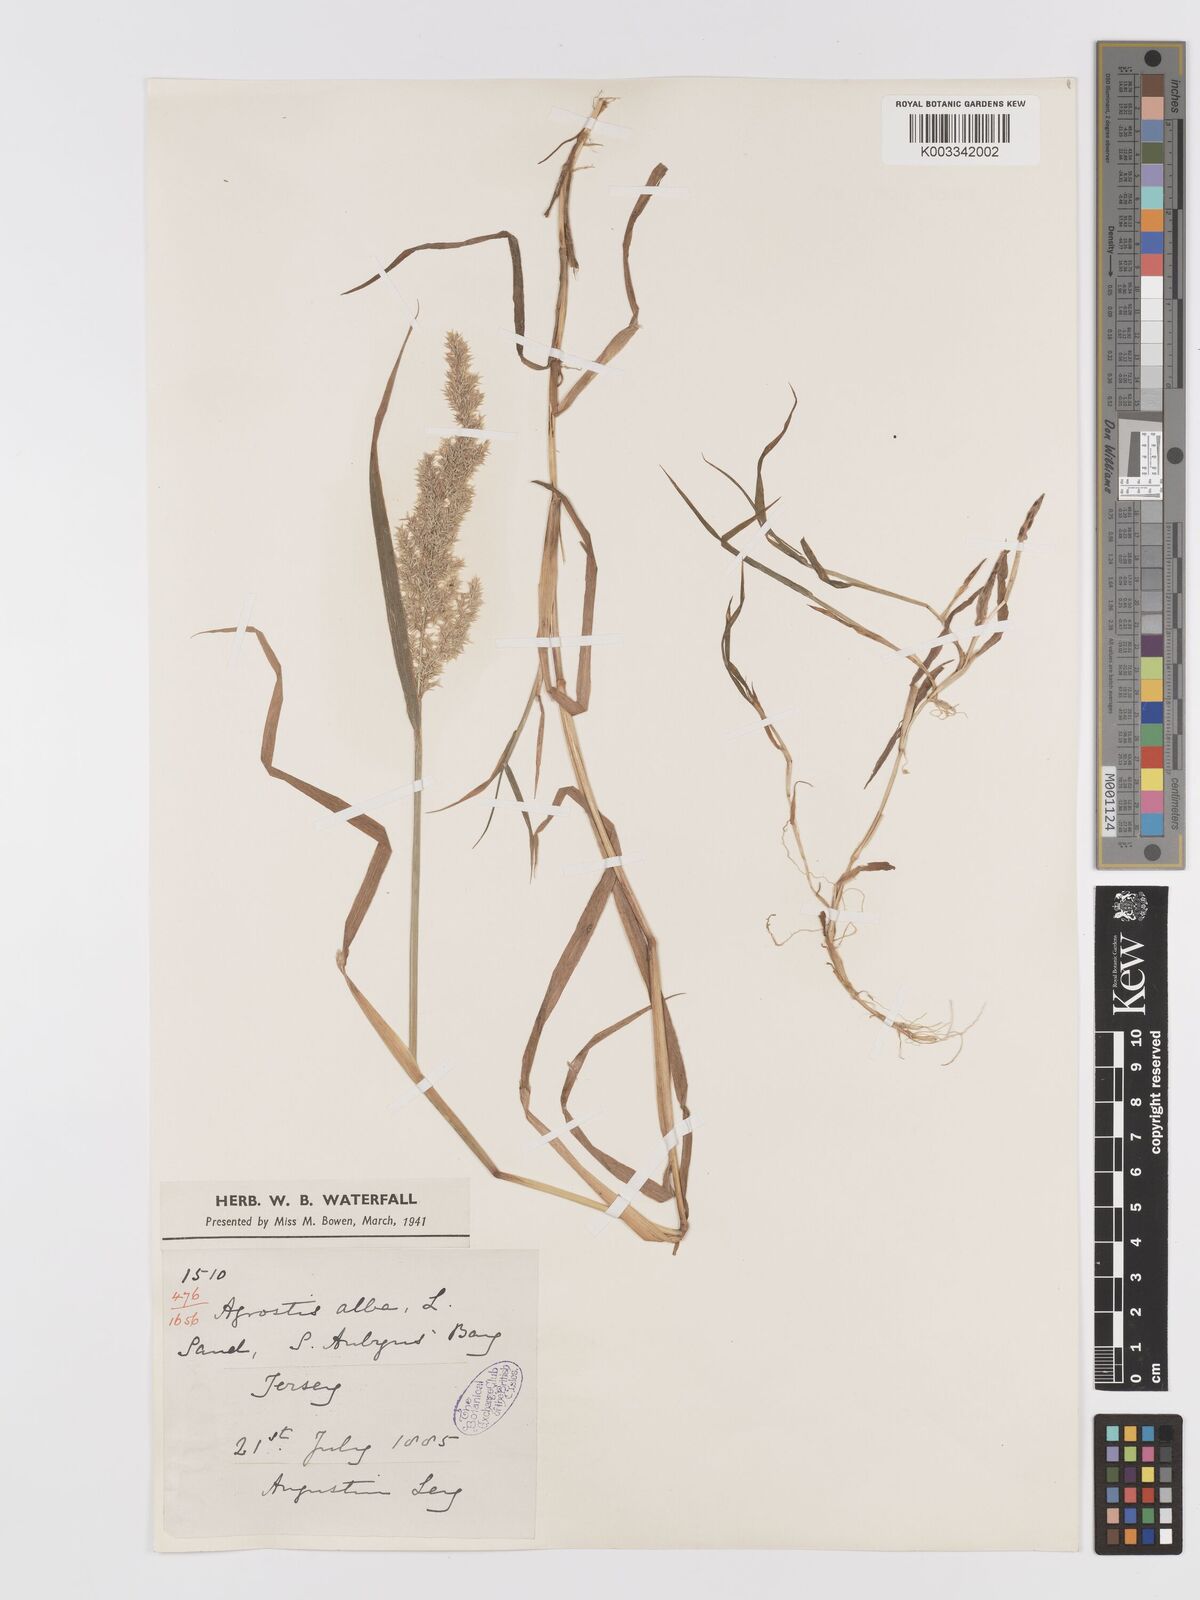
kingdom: Plantae
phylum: Tracheophyta
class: Liliopsida
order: Poales
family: Poaceae
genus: Agrostis
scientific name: Agrostis stolonifera
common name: Creeping bentgrass
